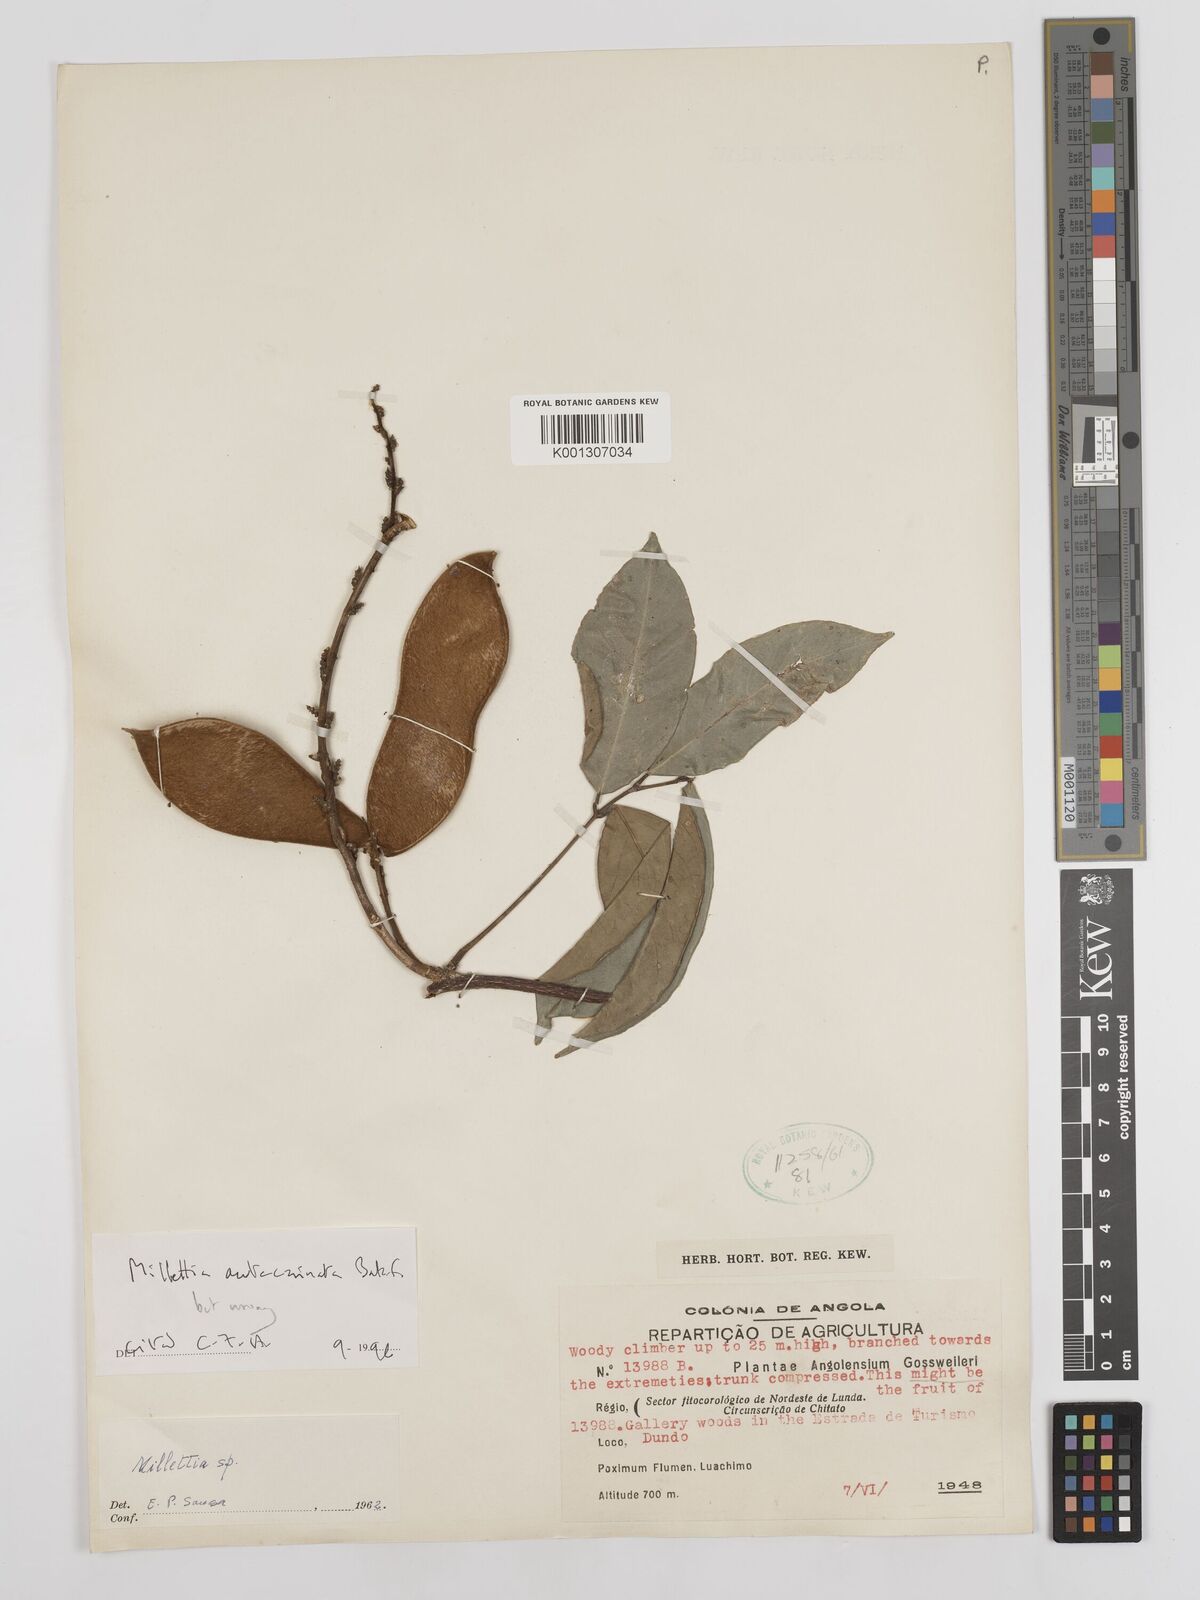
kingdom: Plantae
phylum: Tracheophyta
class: Magnoliopsida
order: Fabales
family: Fabaceae
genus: Millettia
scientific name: Millettia
